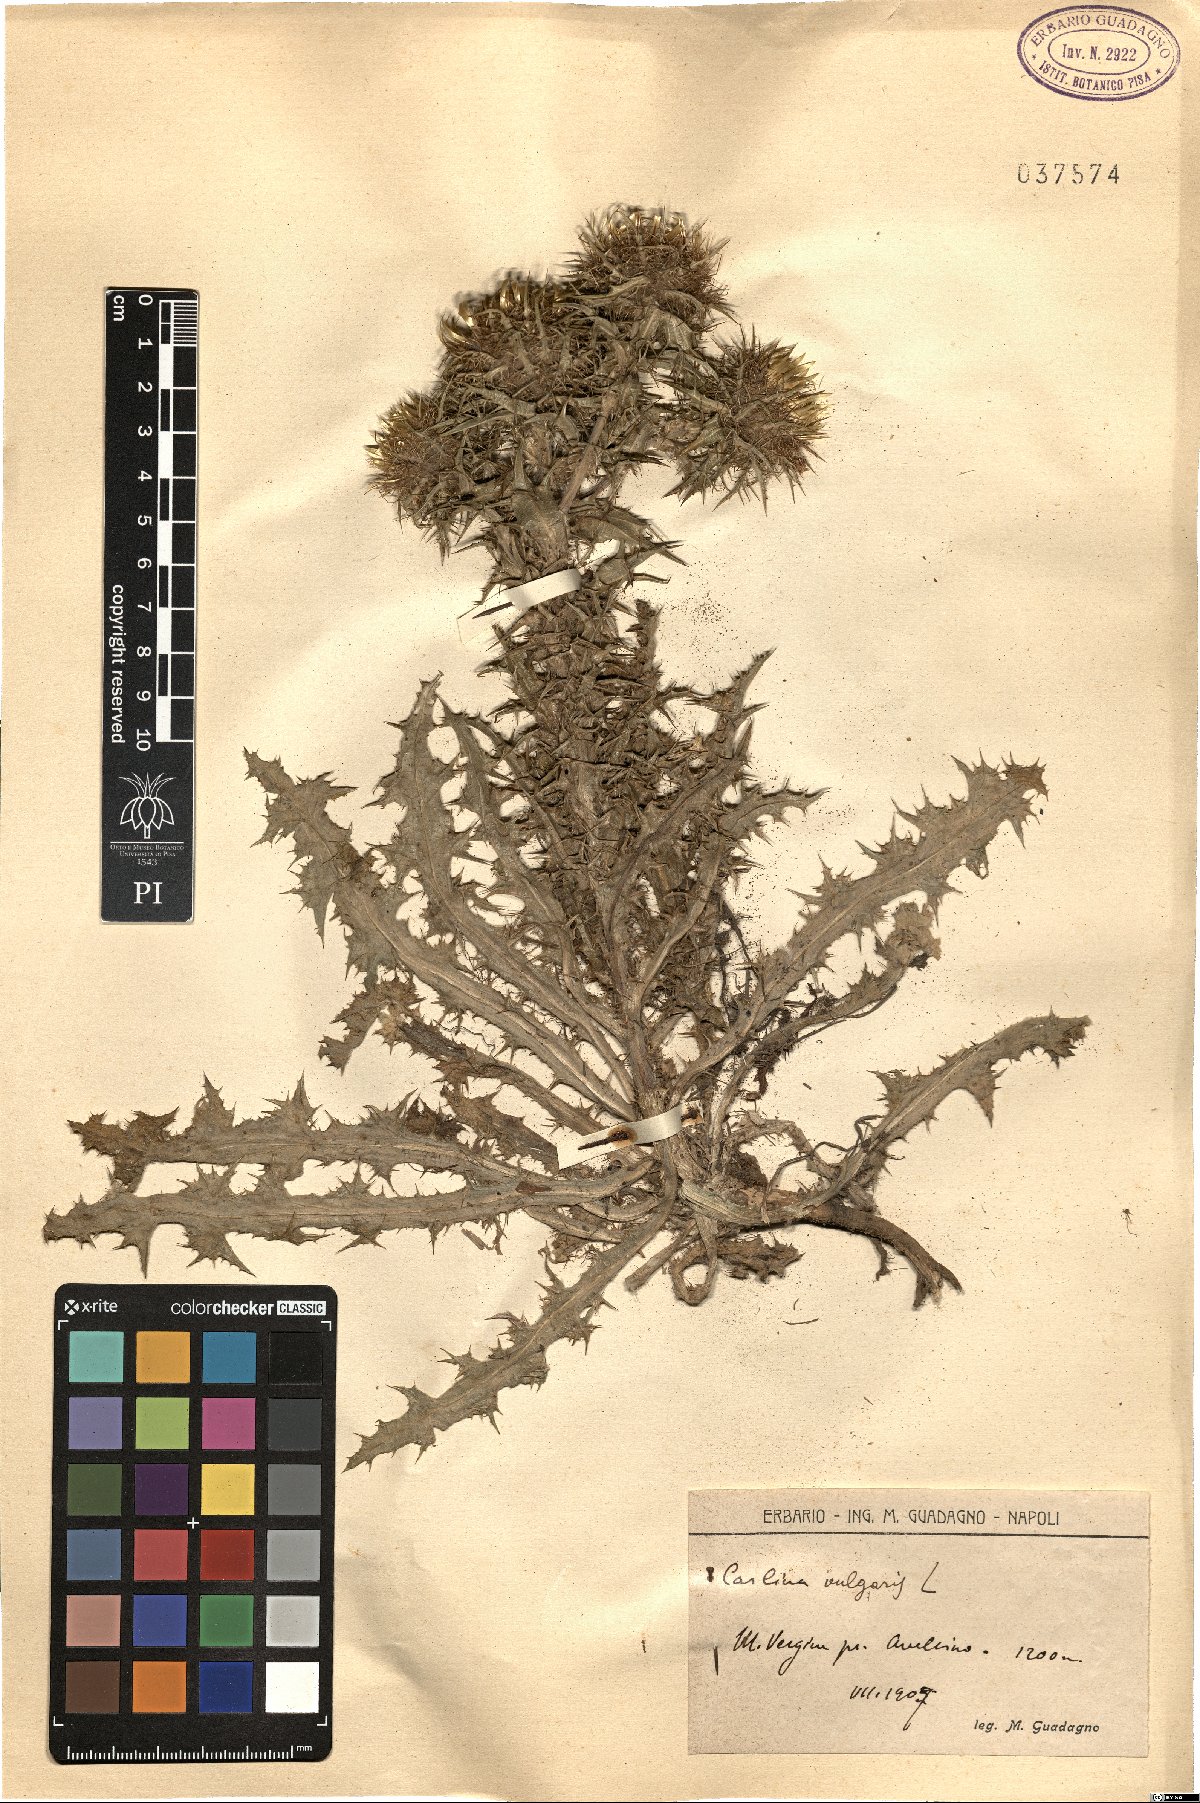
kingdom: Plantae
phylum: Tracheophyta
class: Magnoliopsida
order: Asterales
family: Asteraceae
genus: Carlina
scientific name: Carlina vulgaris
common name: Carline thistle
